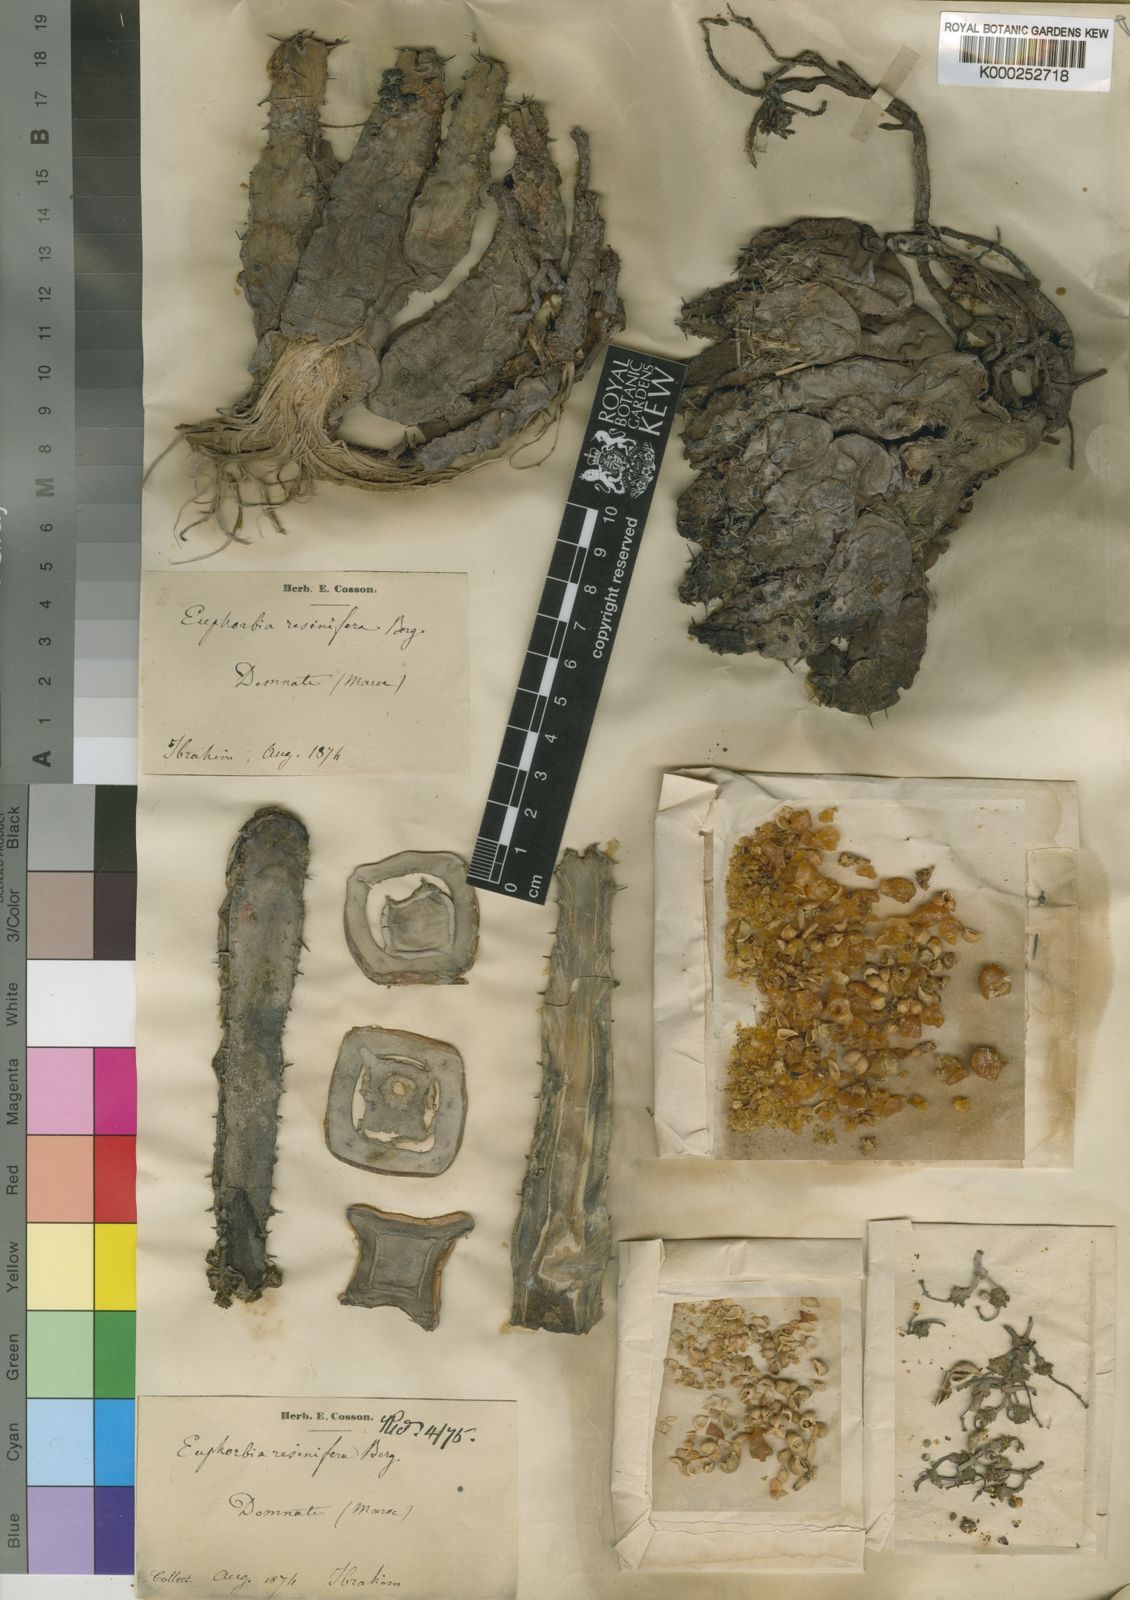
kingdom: Plantae
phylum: Tracheophyta
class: Magnoliopsida
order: Malpighiales
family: Euphorbiaceae
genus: Euphorbia
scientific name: Euphorbia resinifera
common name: African spurge
